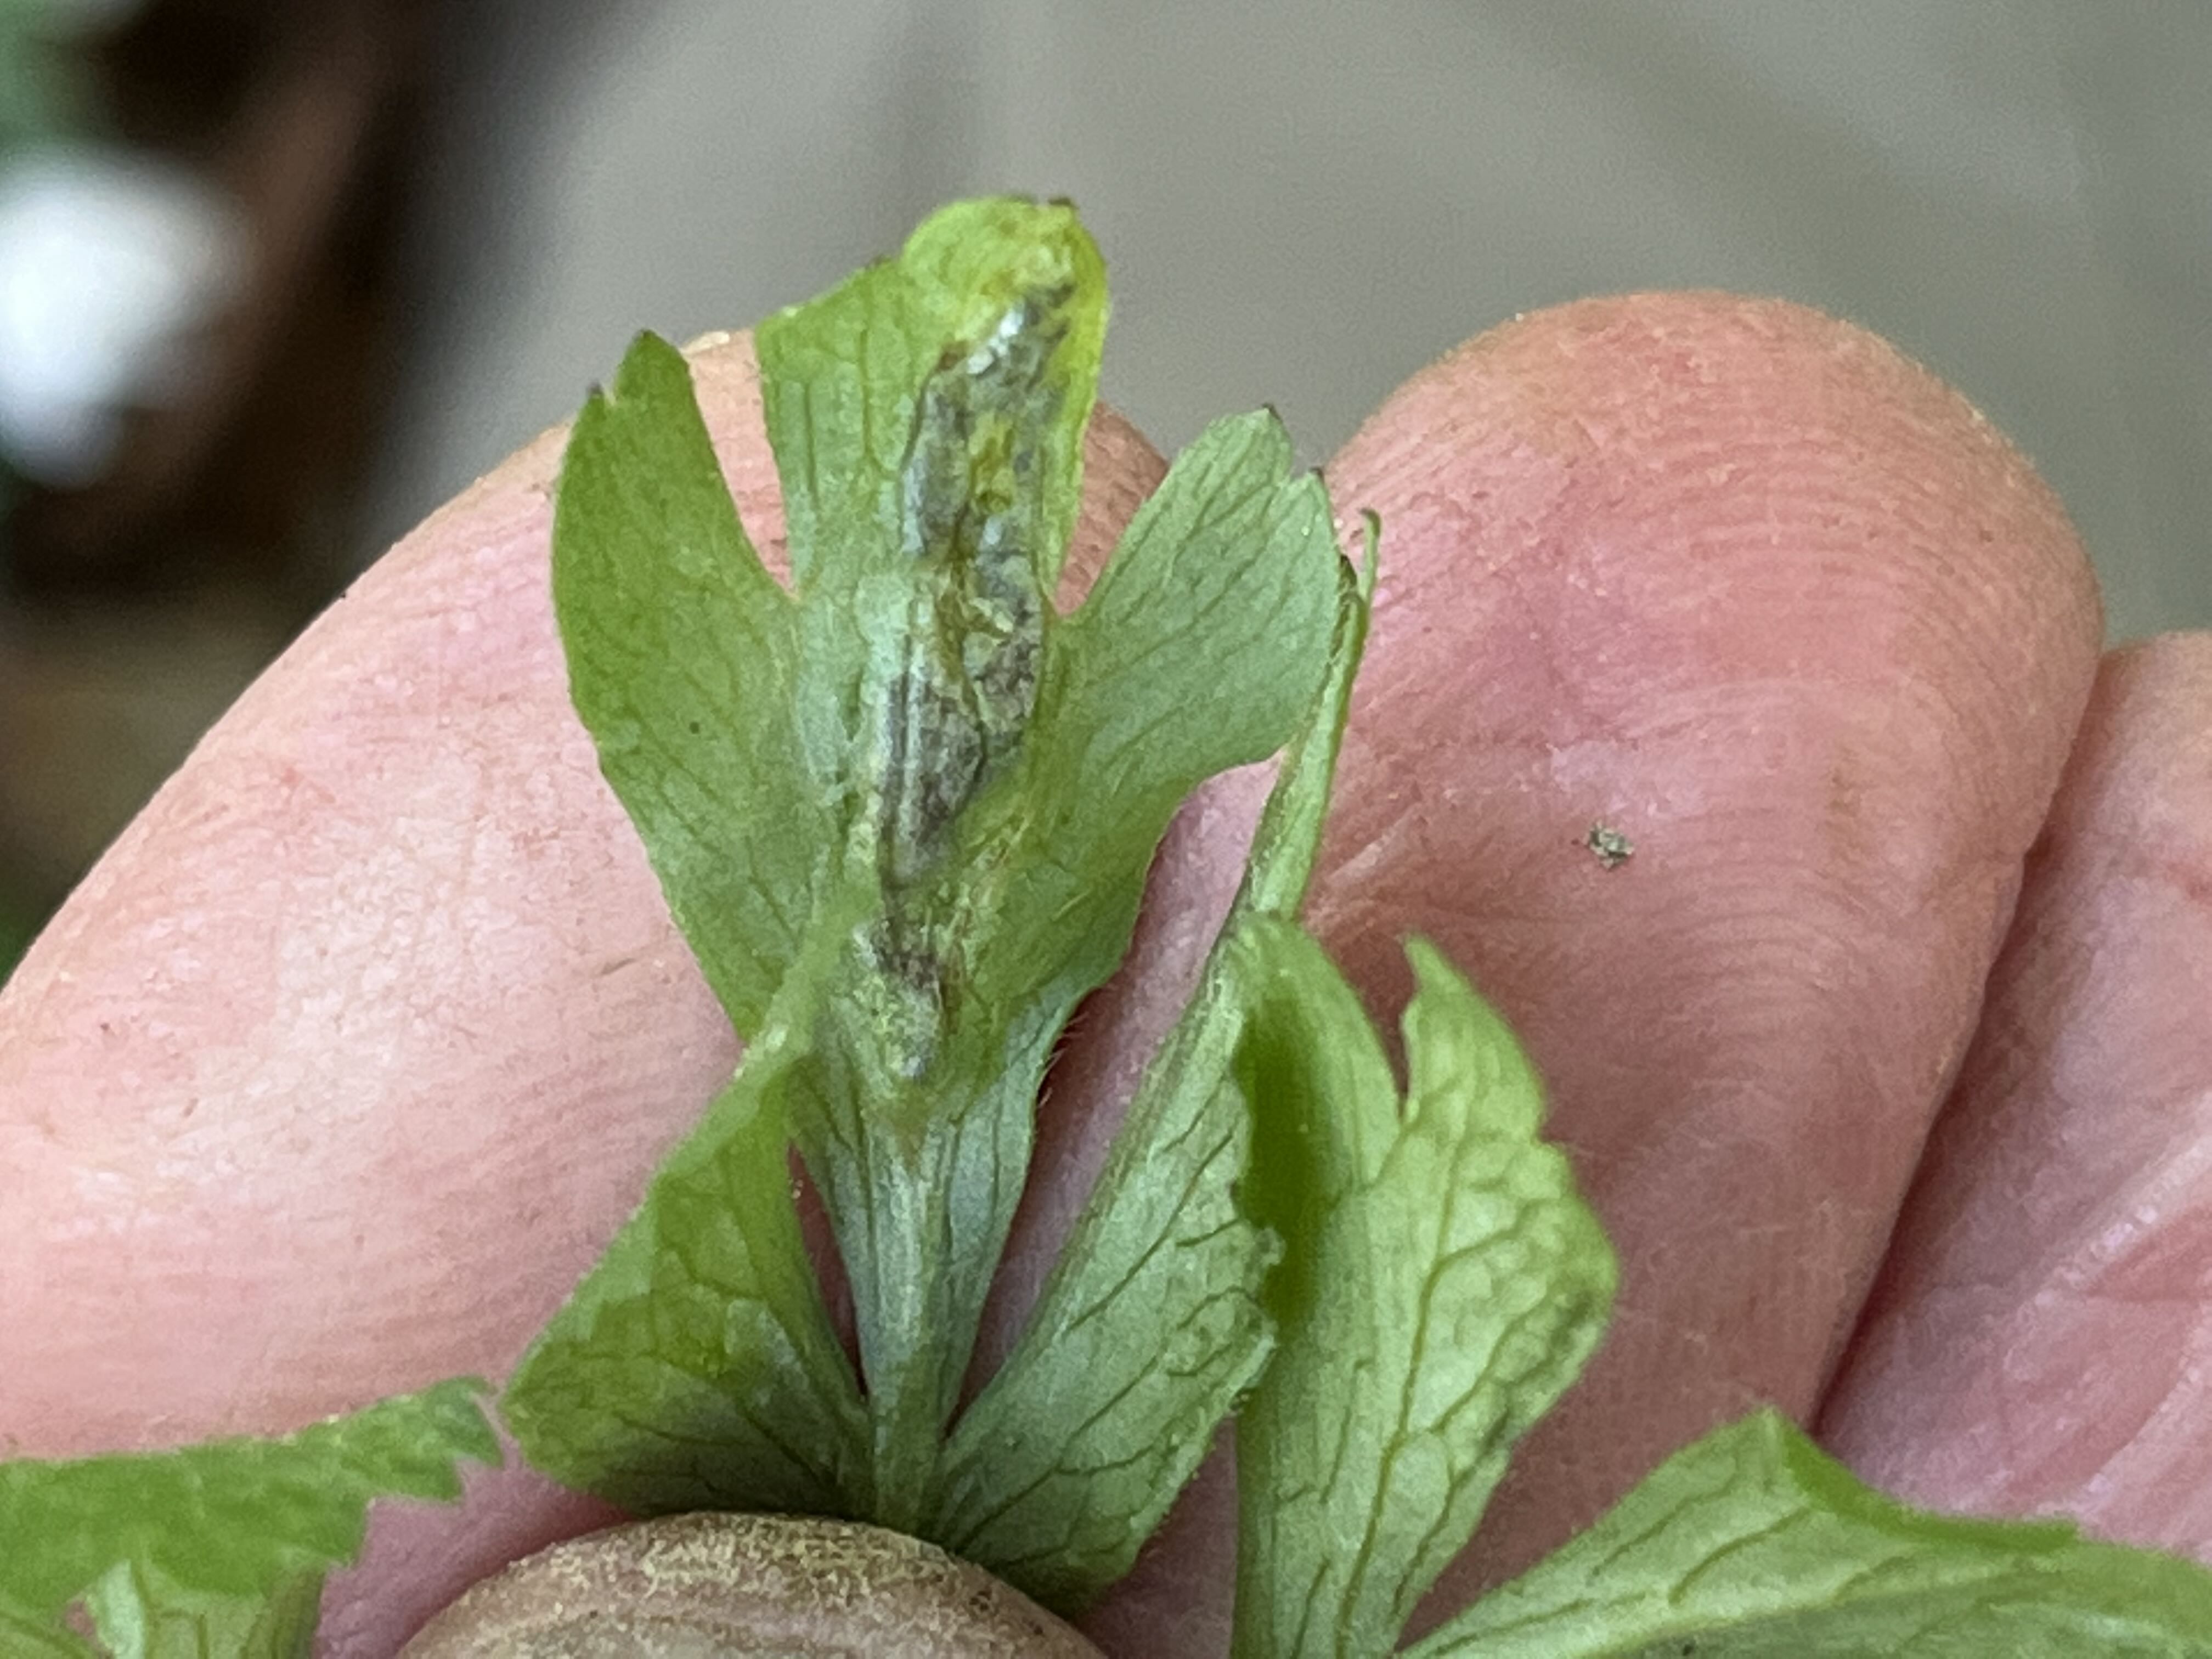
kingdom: Fungi
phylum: Basidiomycota
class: Ustilaginomycetes
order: Urocystidales
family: Urocystidaceae
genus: Urocystis
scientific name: Urocystis anemones
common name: anemone-brand
